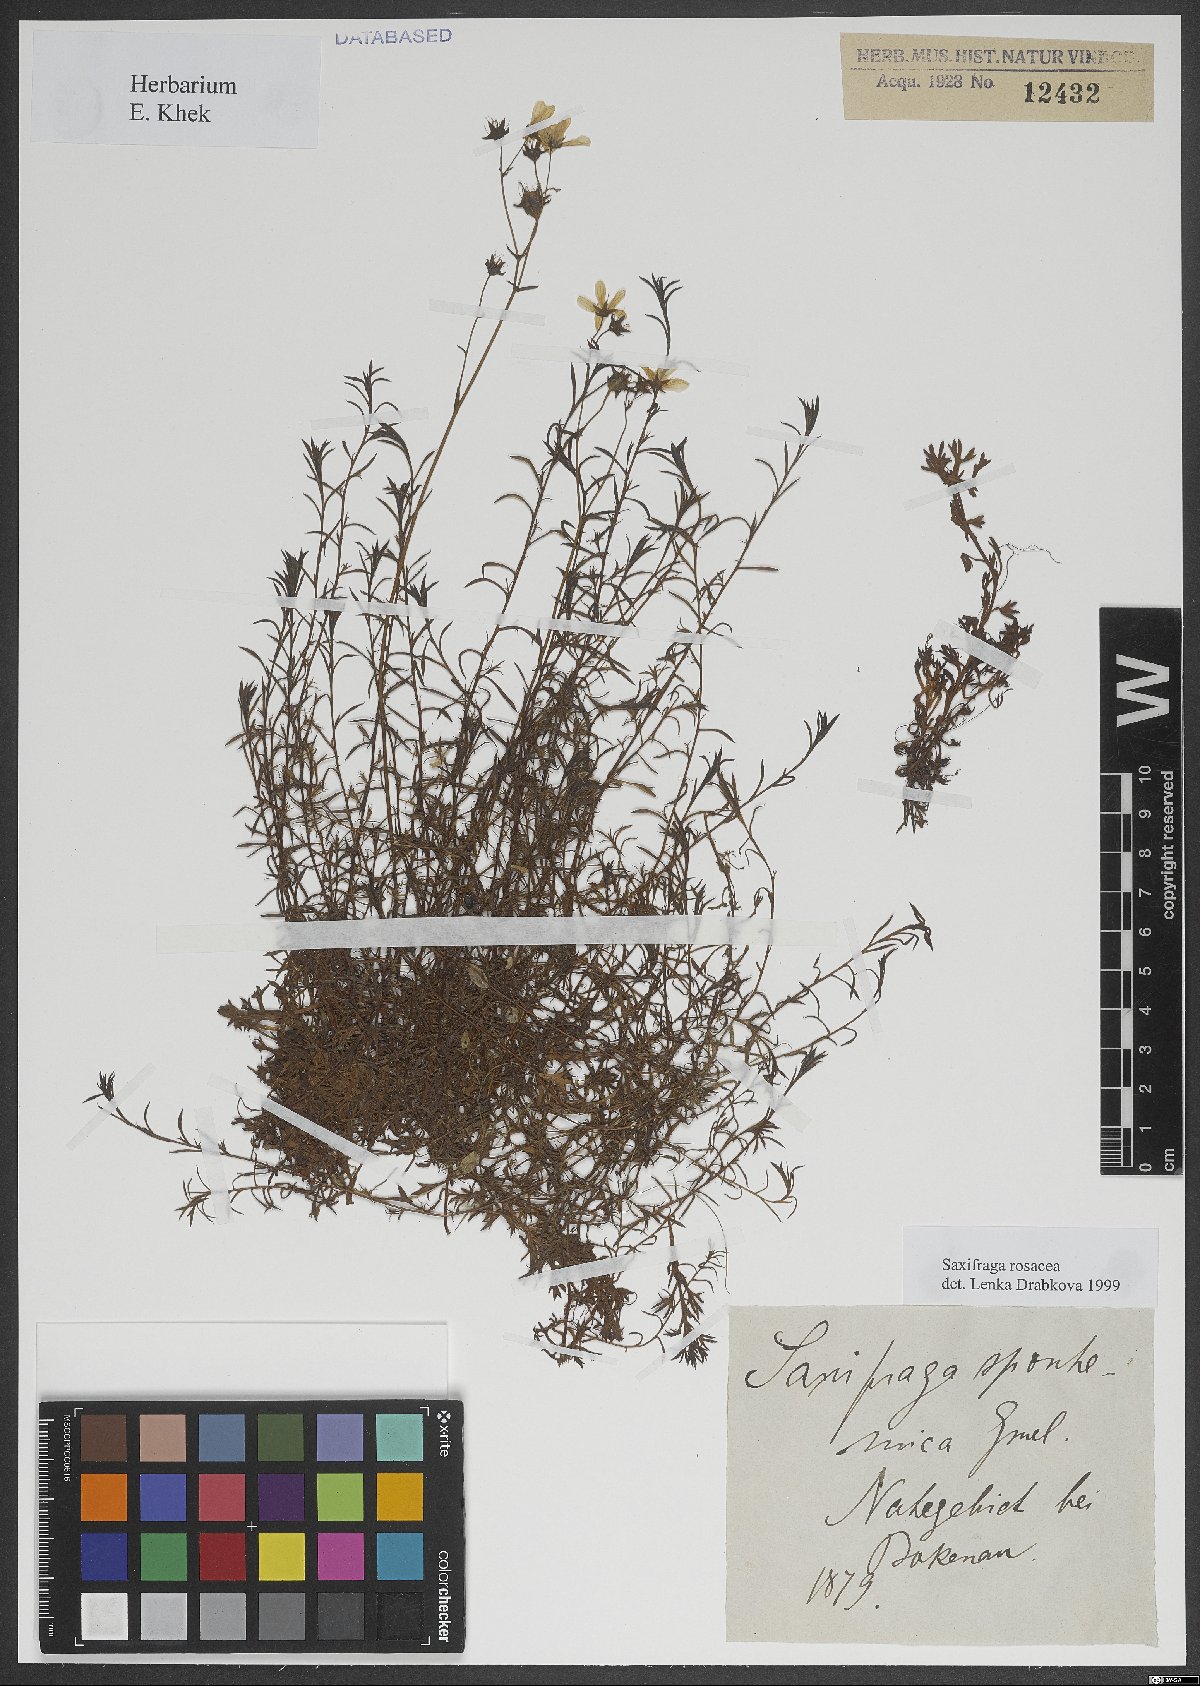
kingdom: Plantae
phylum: Tracheophyta
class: Magnoliopsida
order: Saxifragales
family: Saxifragaceae
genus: Saxifraga
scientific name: Saxifraga rosacea
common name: Irish saxifrage
